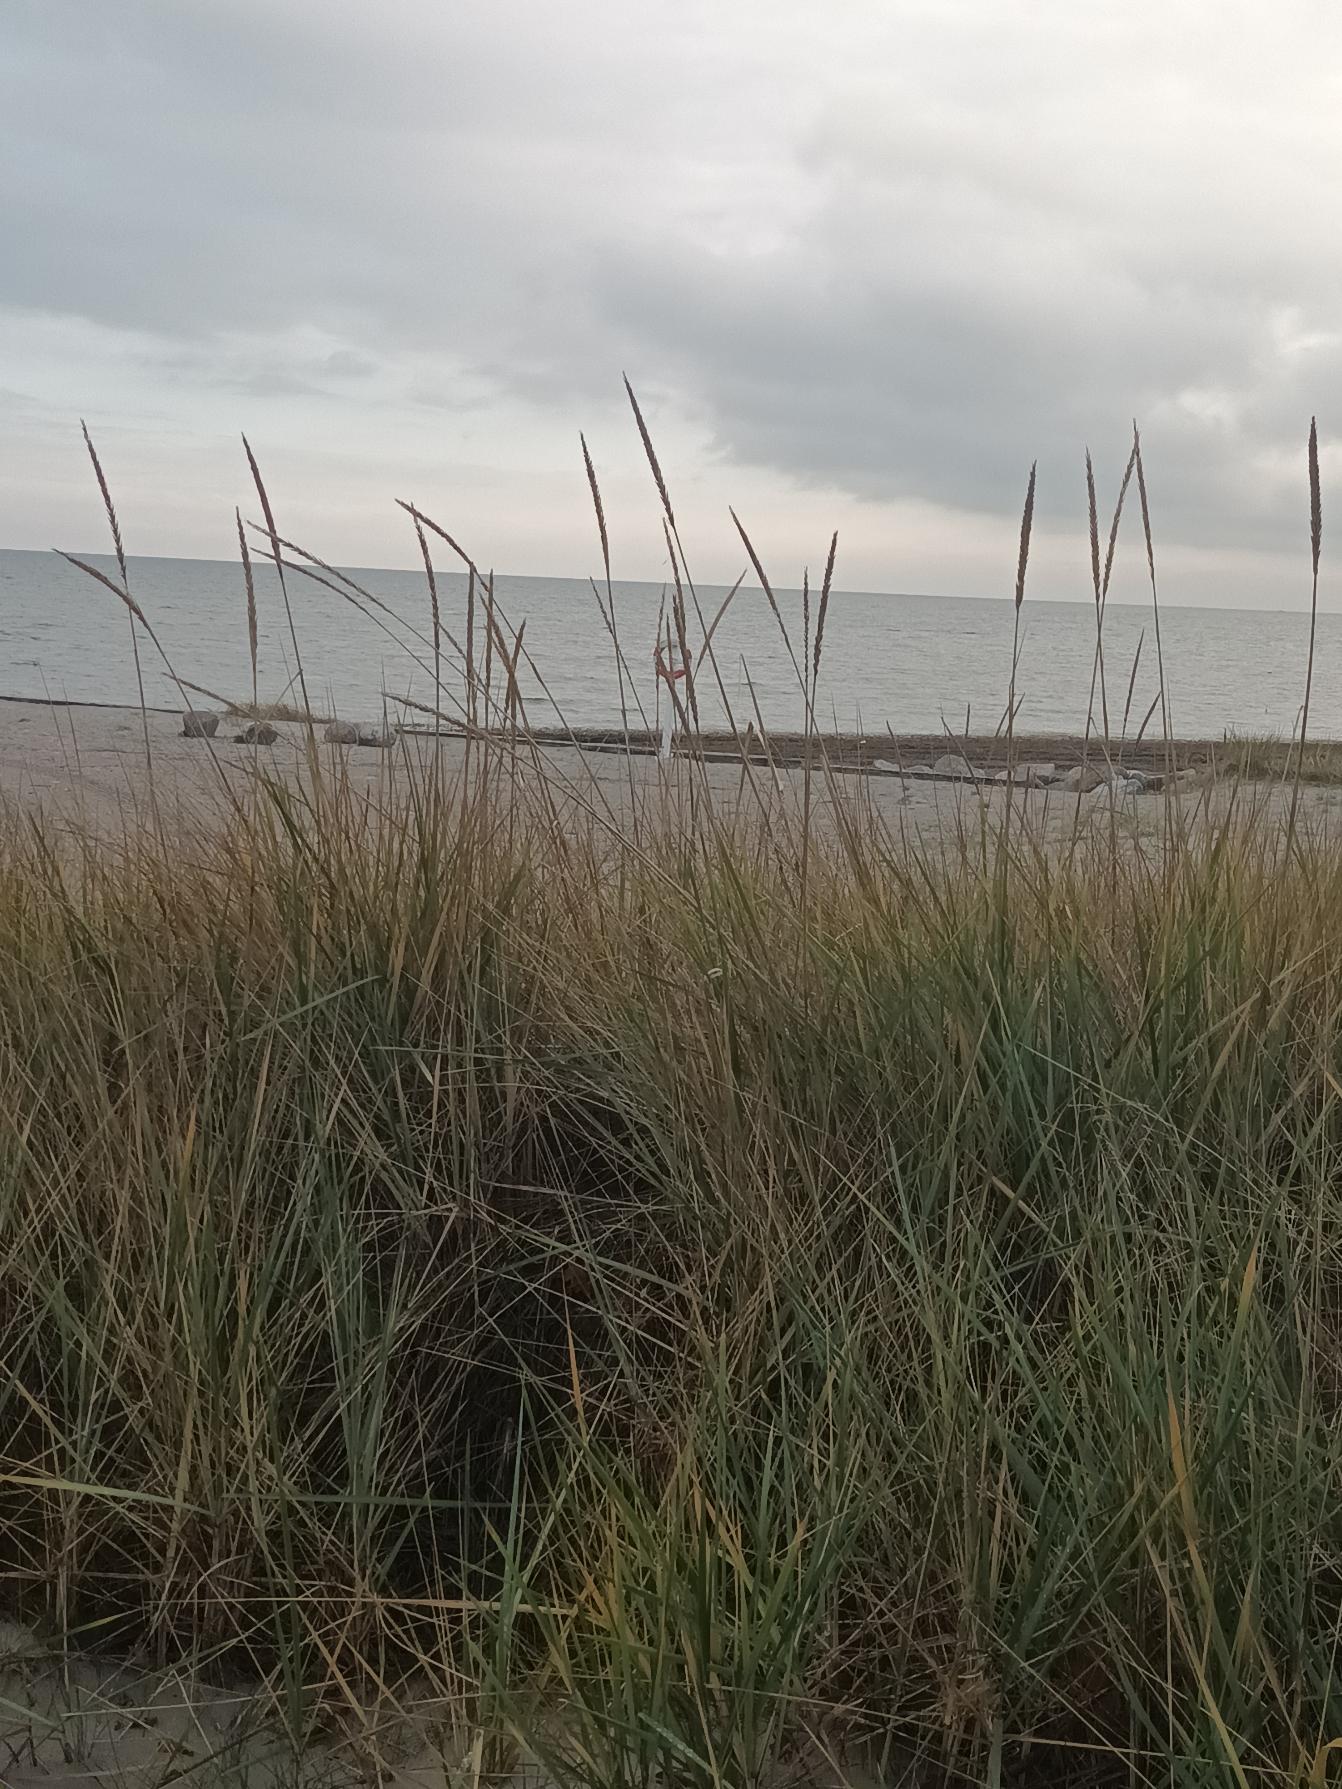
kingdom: Plantae
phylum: Tracheophyta
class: Liliopsida
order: Poales
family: Poaceae
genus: Leymus
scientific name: Leymus arenarius
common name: Marehalm
